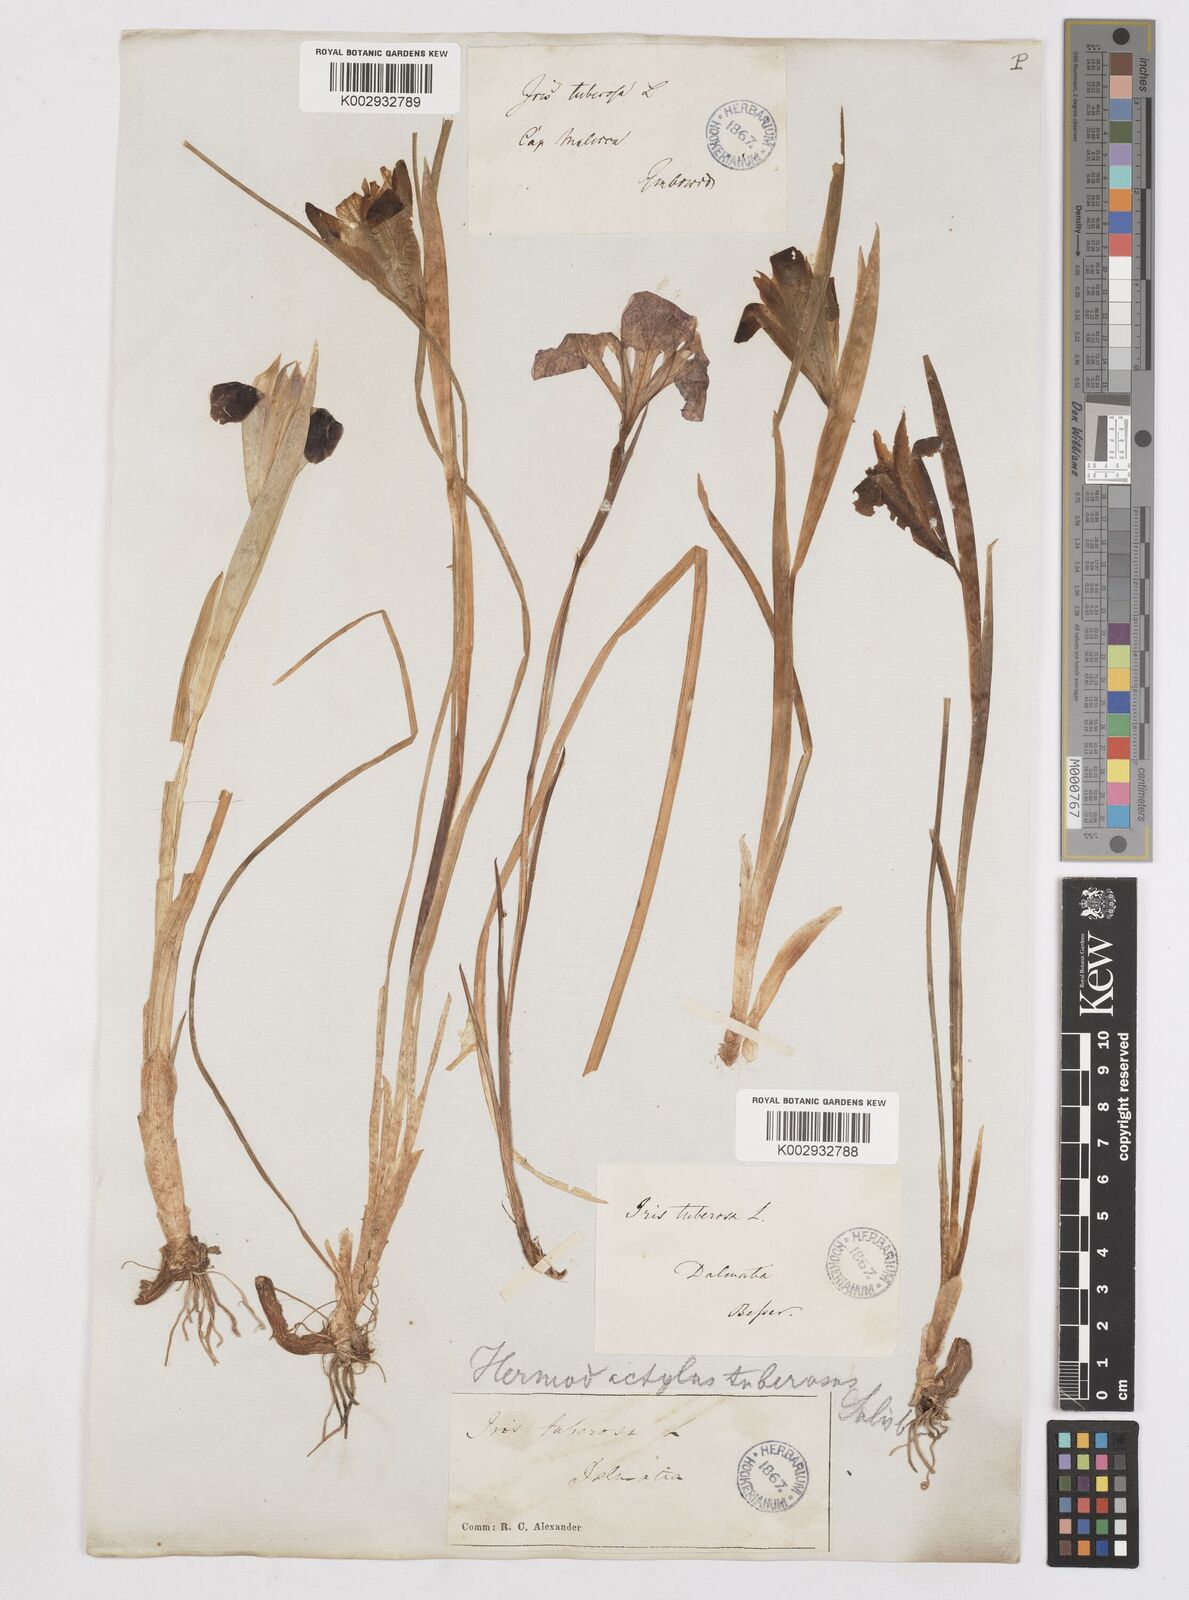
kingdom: Plantae
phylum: Tracheophyta
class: Liliopsida
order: Asparagales
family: Iridaceae
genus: Iris
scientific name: Iris tuberosa
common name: Snake's-head iris
